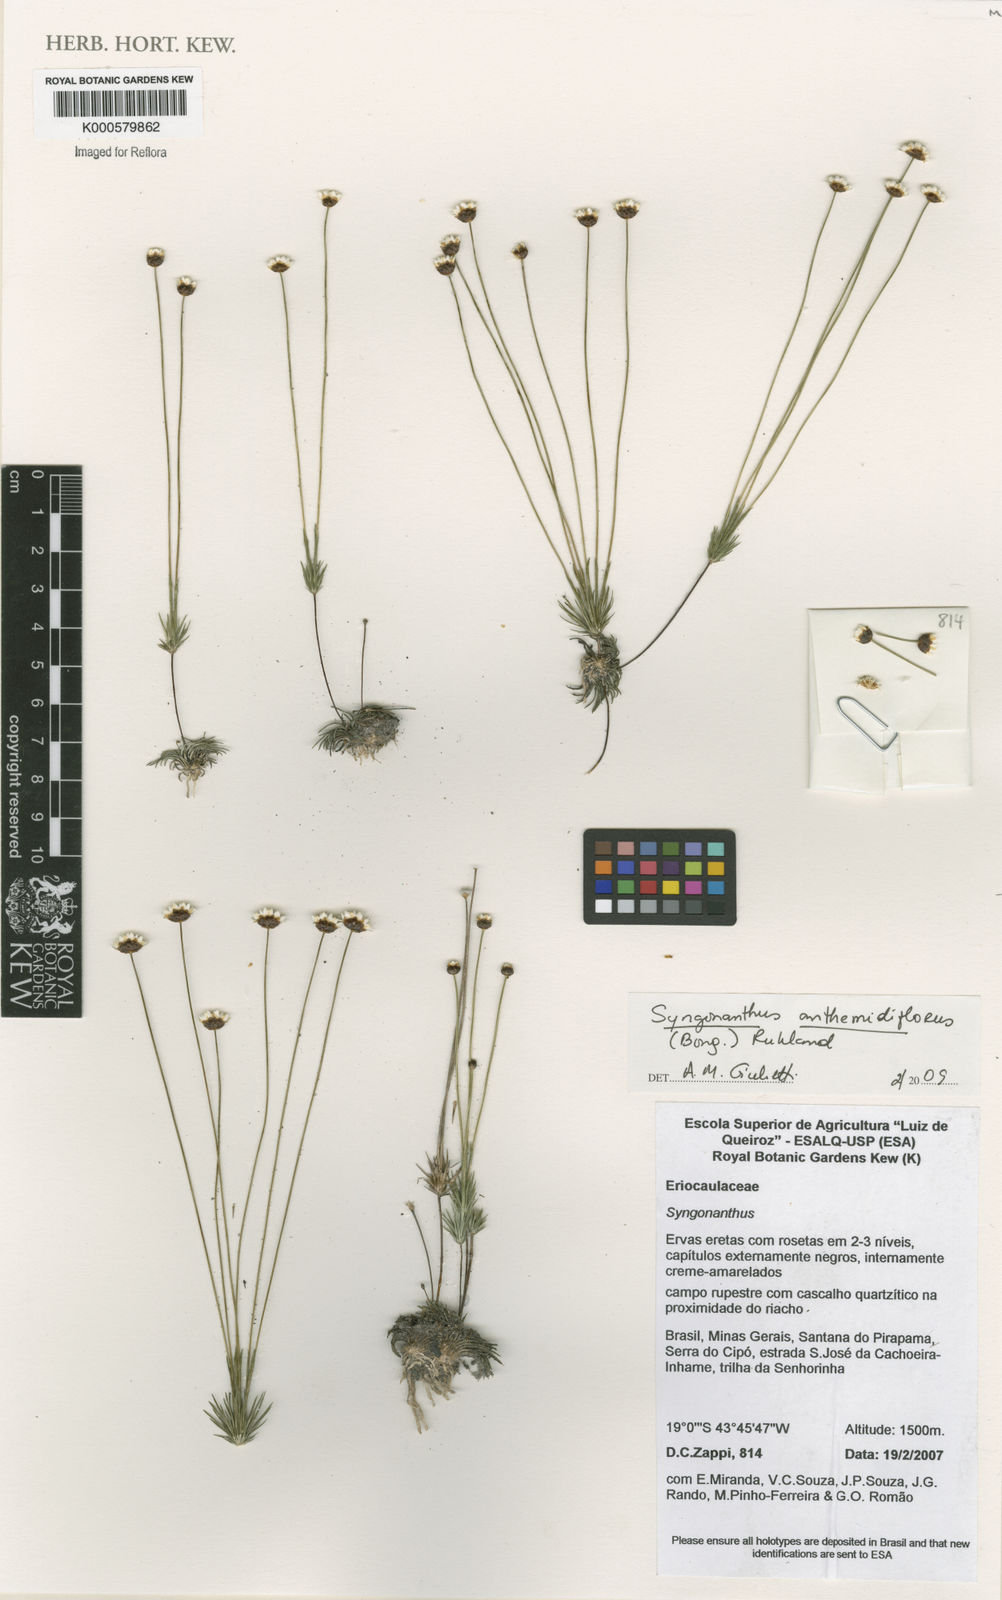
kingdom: Plantae
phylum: Tracheophyta
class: Liliopsida
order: Poales
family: Eriocaulaceae
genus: Syngonanthus
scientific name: Syngonanthus anthemidiflorus
